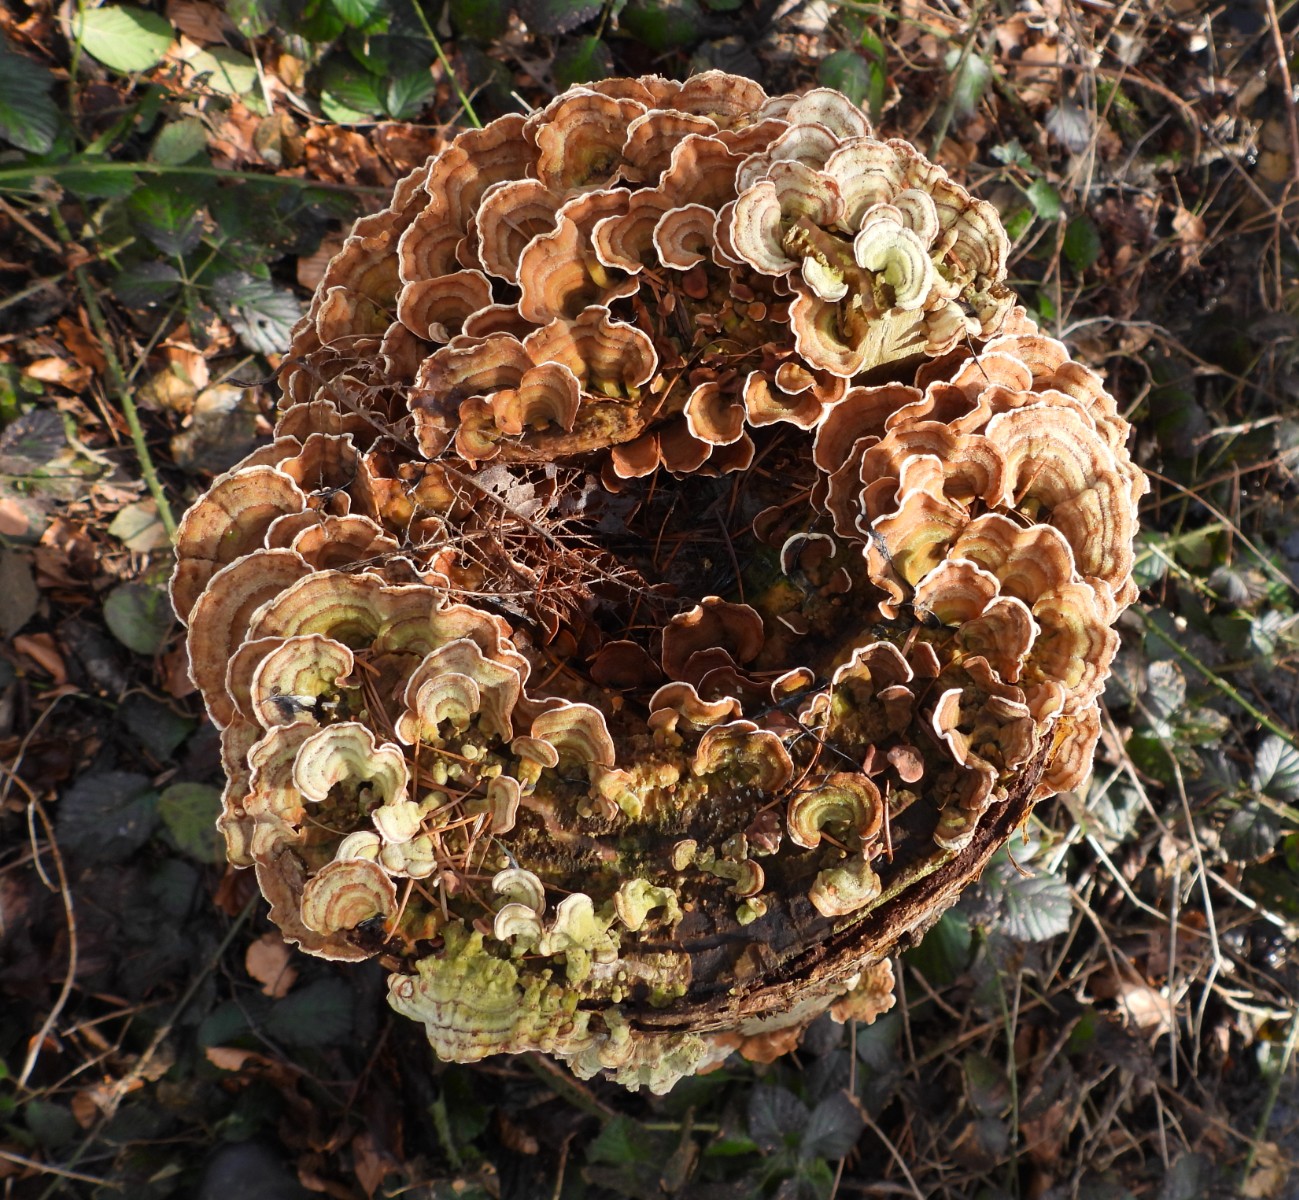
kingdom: Fungi
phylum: Basidiomycota
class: Agaricomycetes
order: Russulales
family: Stereaceae
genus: Stereum
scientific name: Stereum subtomentosum
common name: smuk lædersvamp
